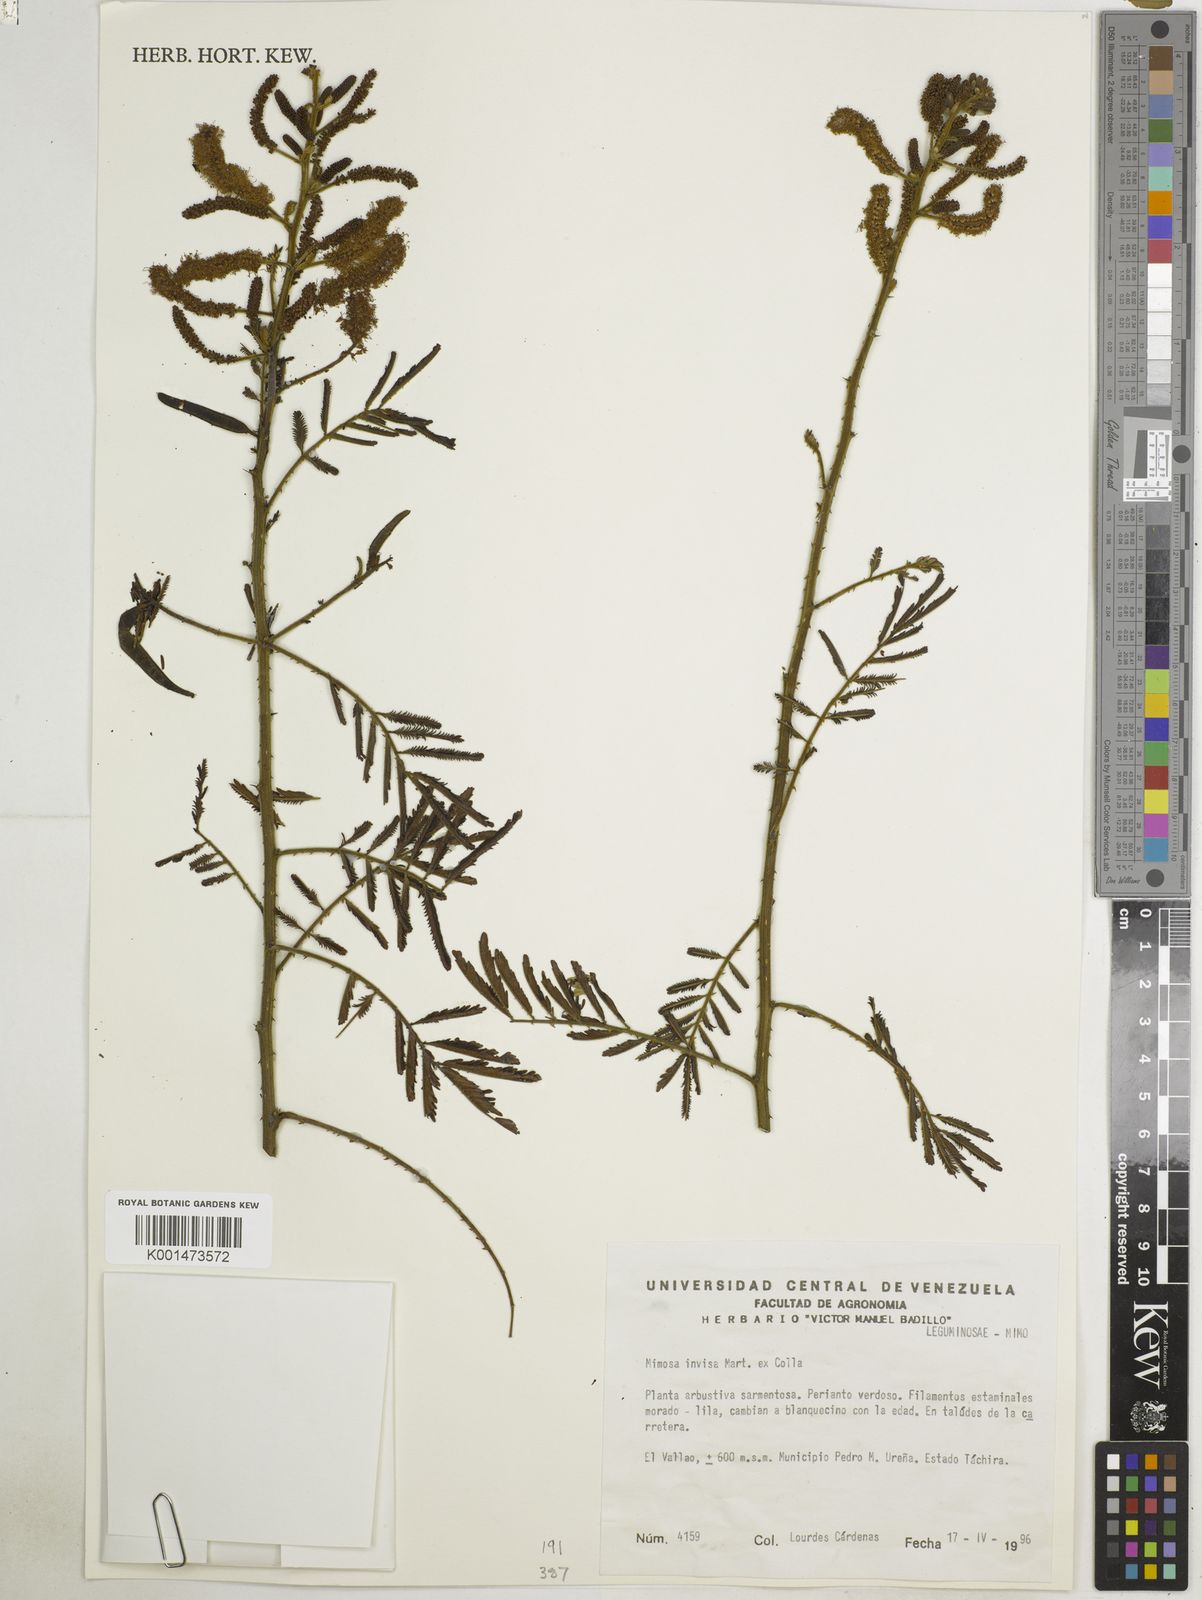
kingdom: Plantae
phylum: Tracheophyta
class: Magnoliopsida
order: Fabales
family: Fabaceae
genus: Mimosa
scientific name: Mimosa invisa
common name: Creeping sensitive-plant
